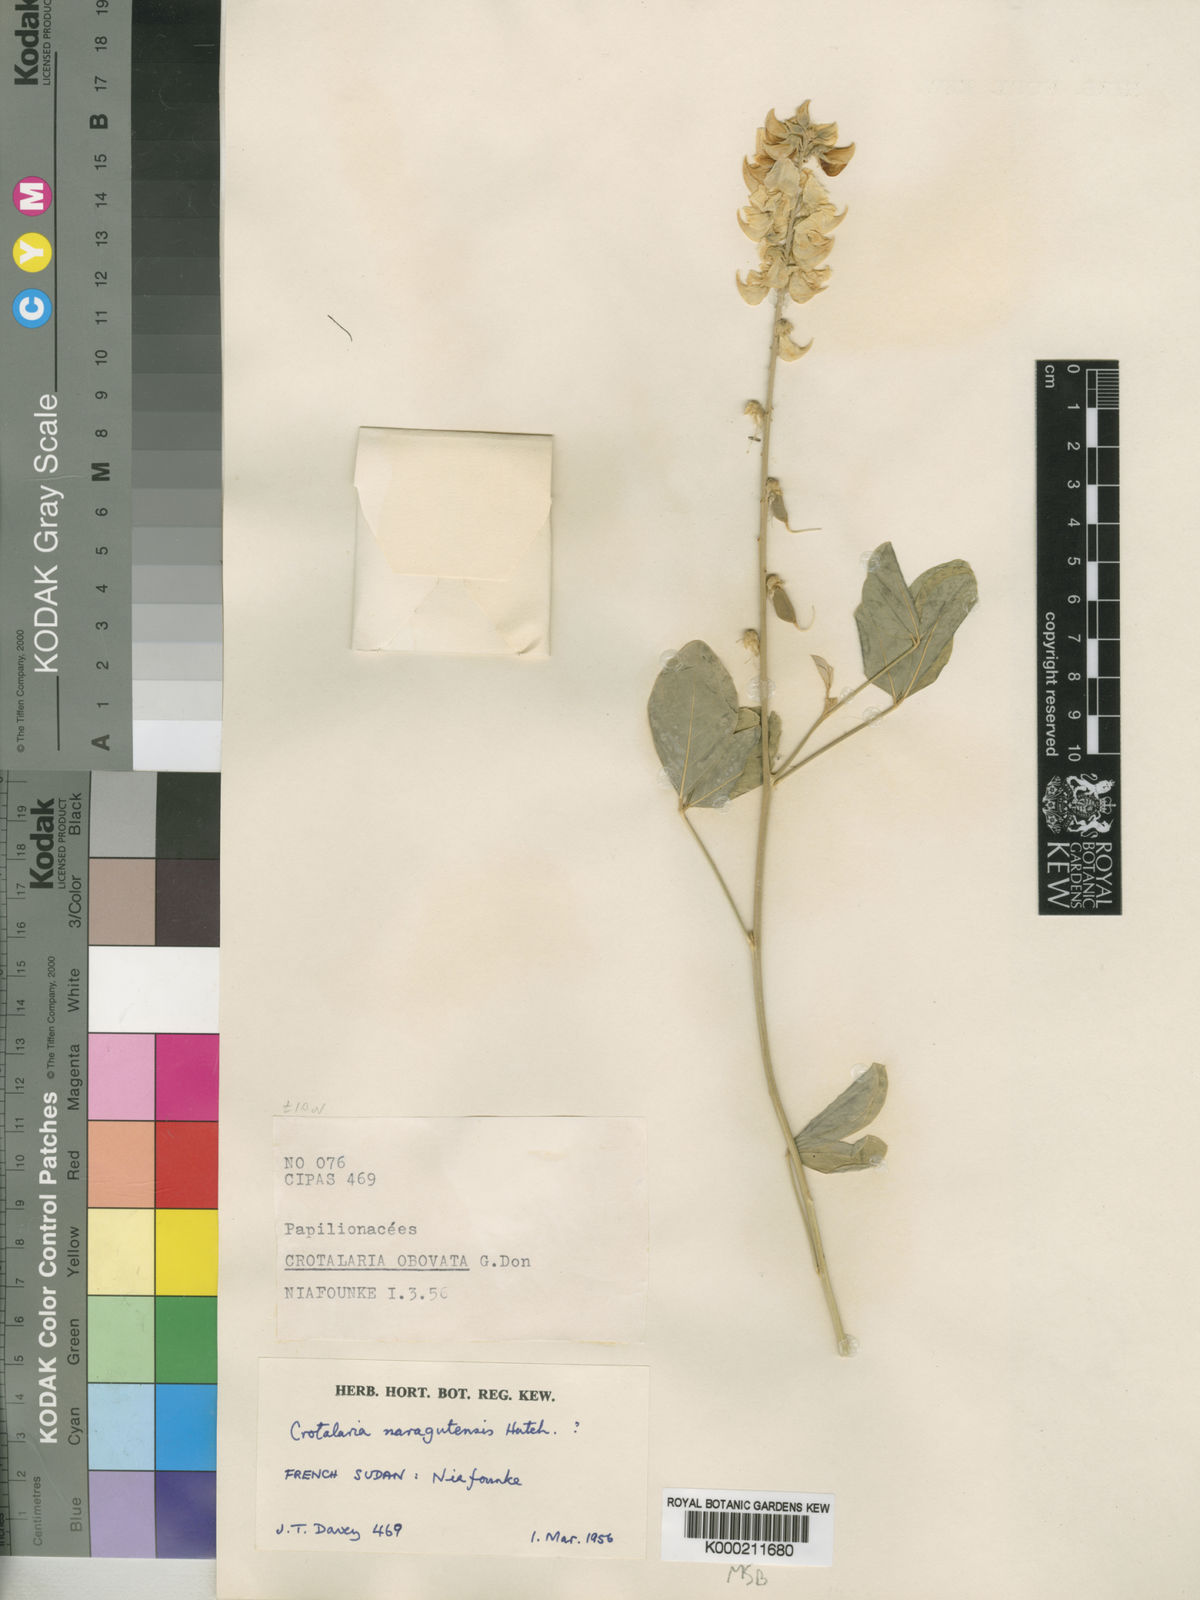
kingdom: Plantae
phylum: Tracheophyta
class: Magnoliopsida
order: Fabales
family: Fabaceae
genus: Crotalaria
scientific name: Crotalaria naragutensis
